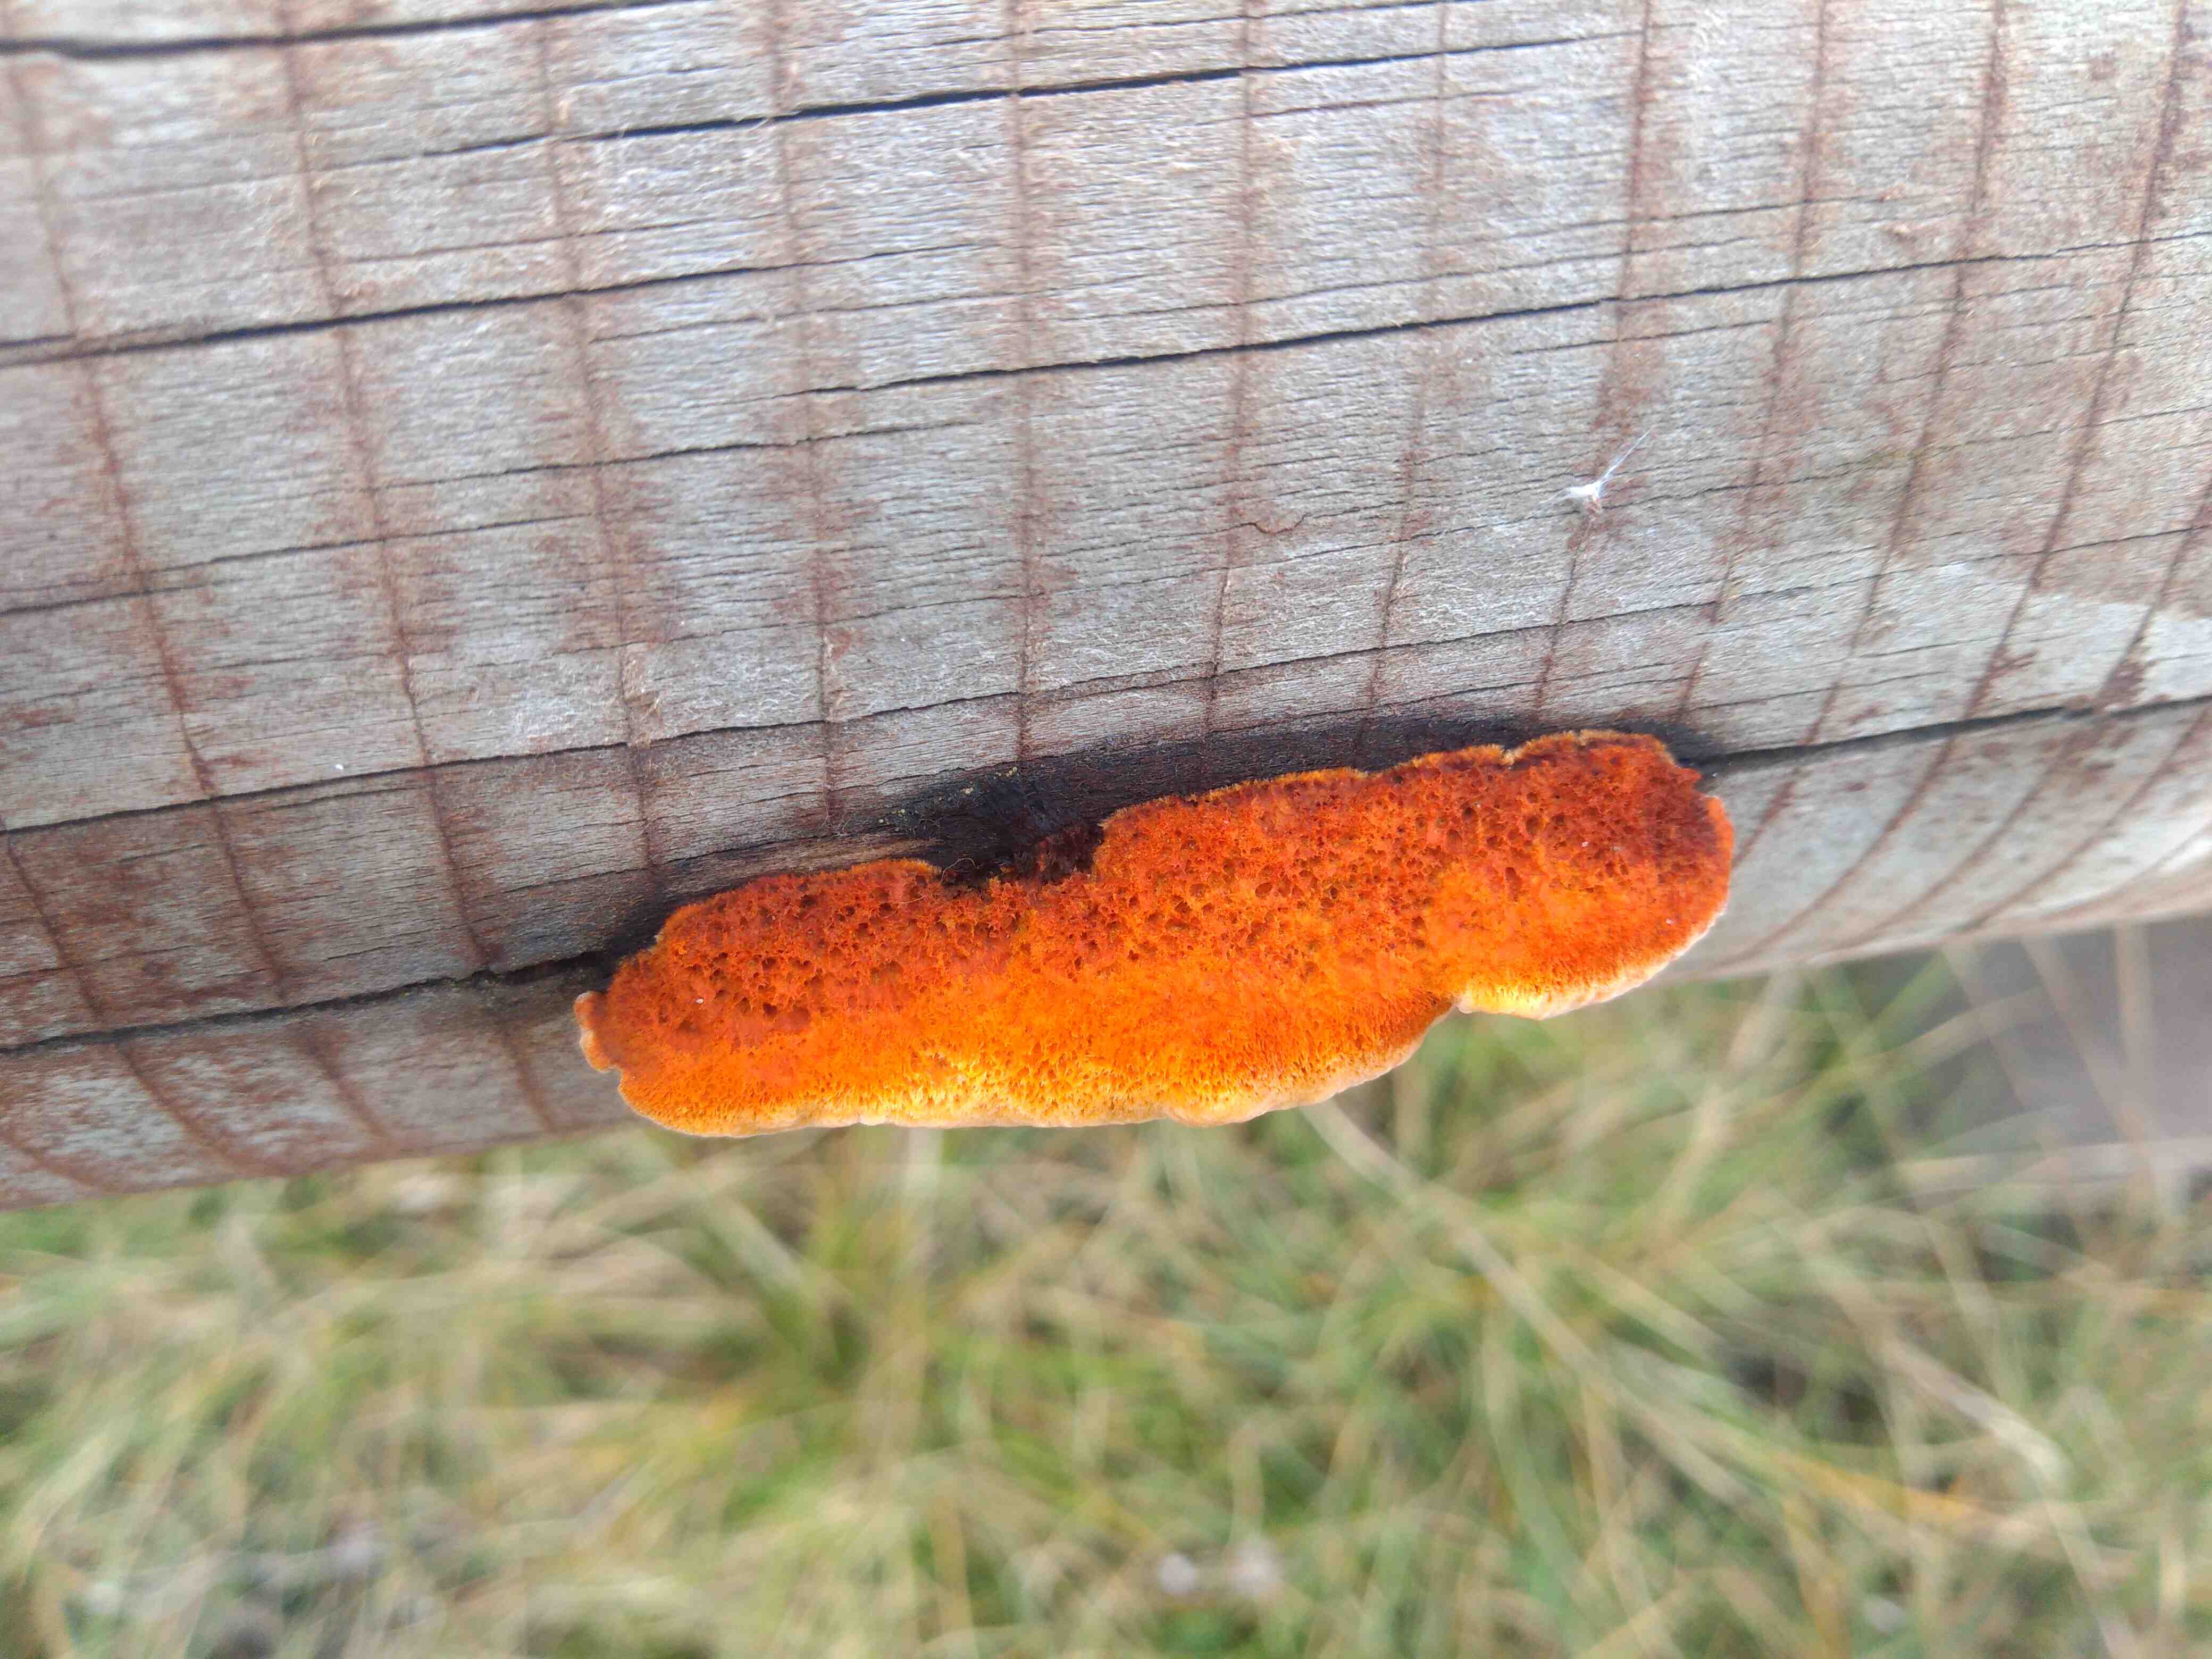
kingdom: Fungi
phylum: Basidiomycota
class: Agaricomycetes
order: Gloeophyllales
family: Gloeophyllaceae
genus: Gloeophyllum
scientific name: Gloeophyllum sepiarium
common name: fyrre-korkhat
